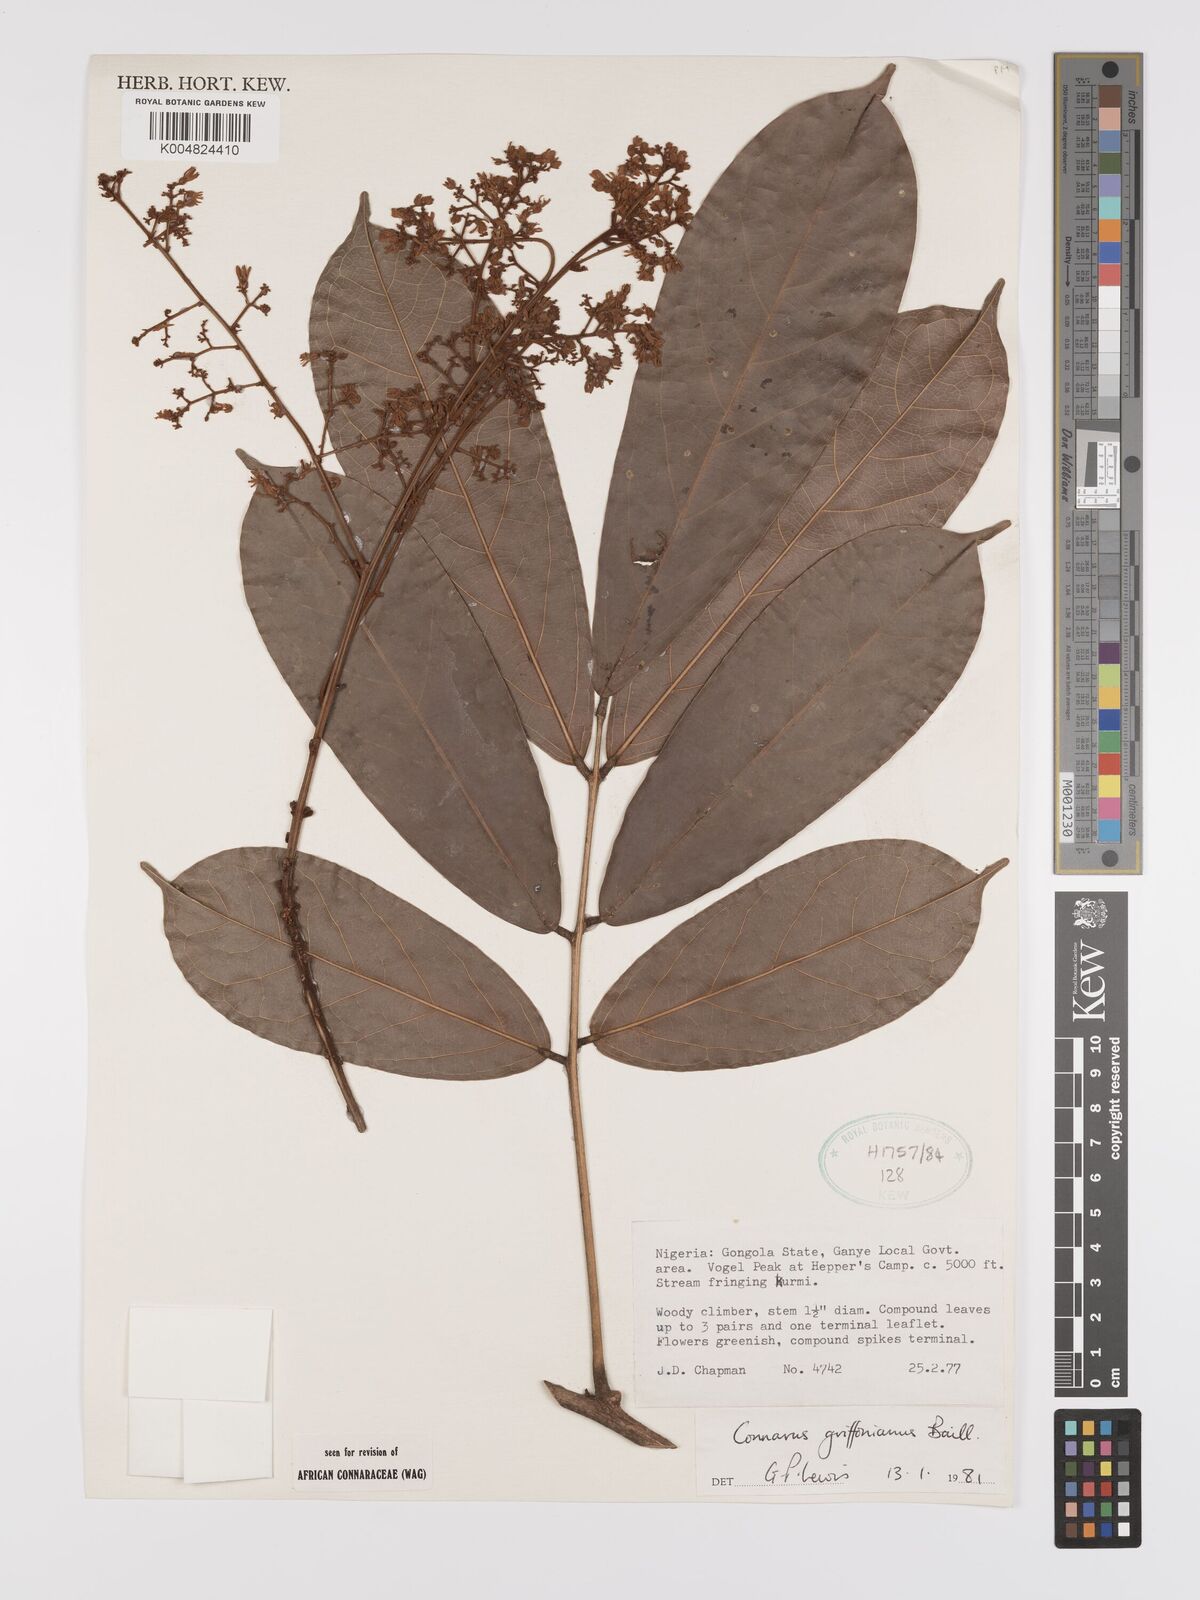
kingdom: Plantae
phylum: Tracheophyta
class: Magnoliopsida
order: Oxalidales
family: Connaraceae
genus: Connarus
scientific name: Connarus griffonianus
